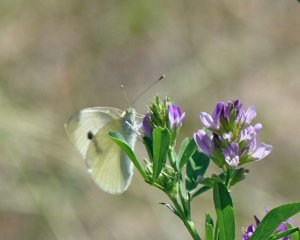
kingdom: Animalia
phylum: Arthropoda
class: Insecta
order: Lepidoptera
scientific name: Lepidoptera
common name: Butterflies
